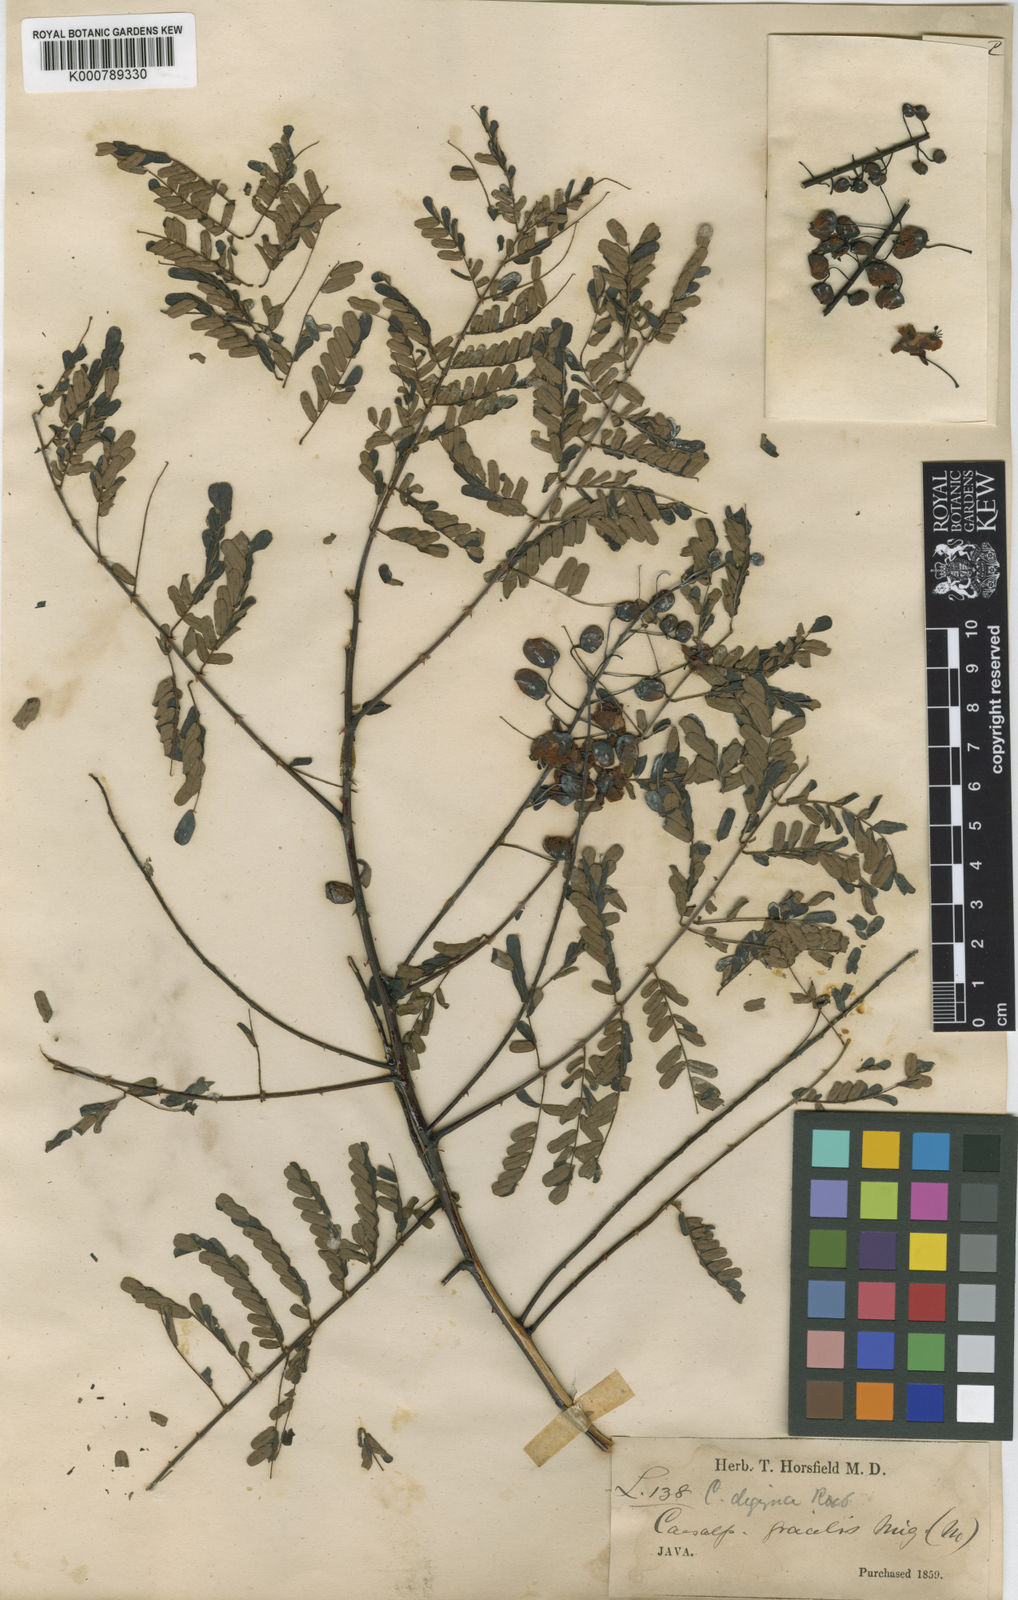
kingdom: Plantae
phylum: Tracheophyta
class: Magnoliopsida
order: Fabales
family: Fabaceae
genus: Caesalpinia
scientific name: Caesalpinia
